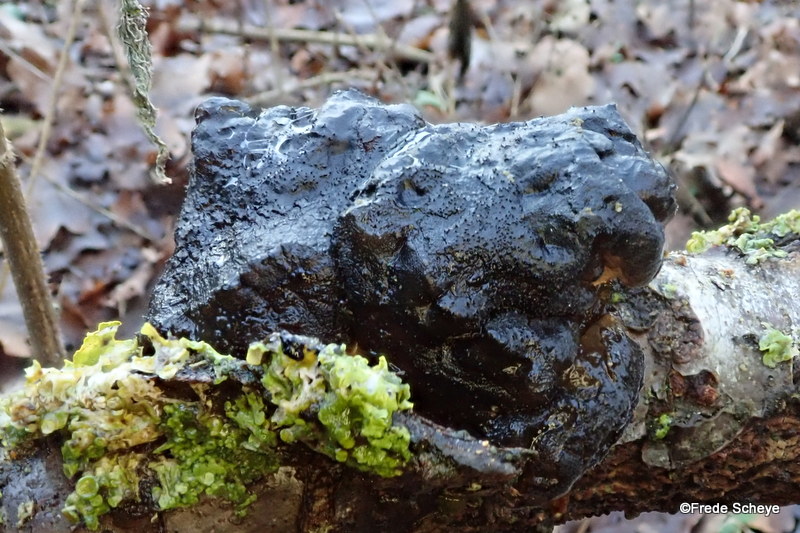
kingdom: Fungi
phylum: Basidiomycota
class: Agaricomycetes
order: Auriculariales
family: Auriculariaceae
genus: Exidia
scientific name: Exidia glandulosa
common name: ege-bævretop
